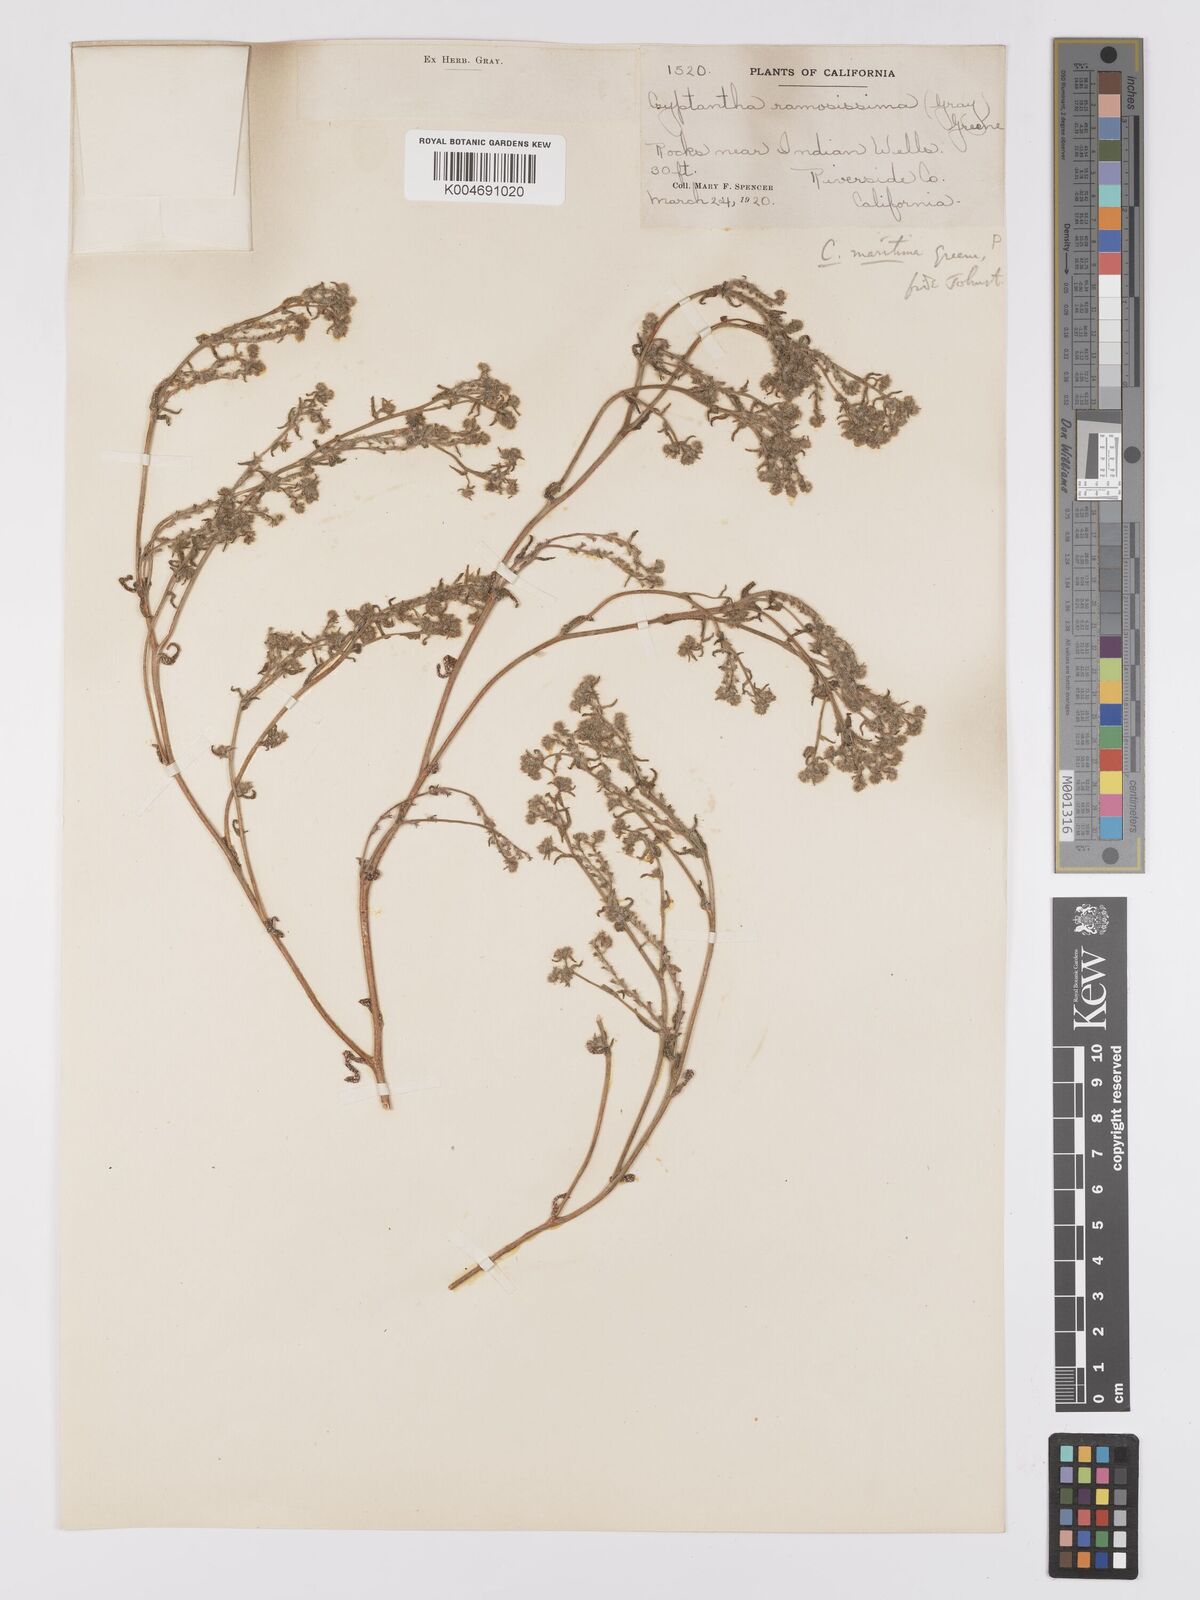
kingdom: Plantae
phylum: Tracheophyta
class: Magnoliopsida
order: Boraginales
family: Boraginaceae
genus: Cryptantha
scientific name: Cryptantha maritima
